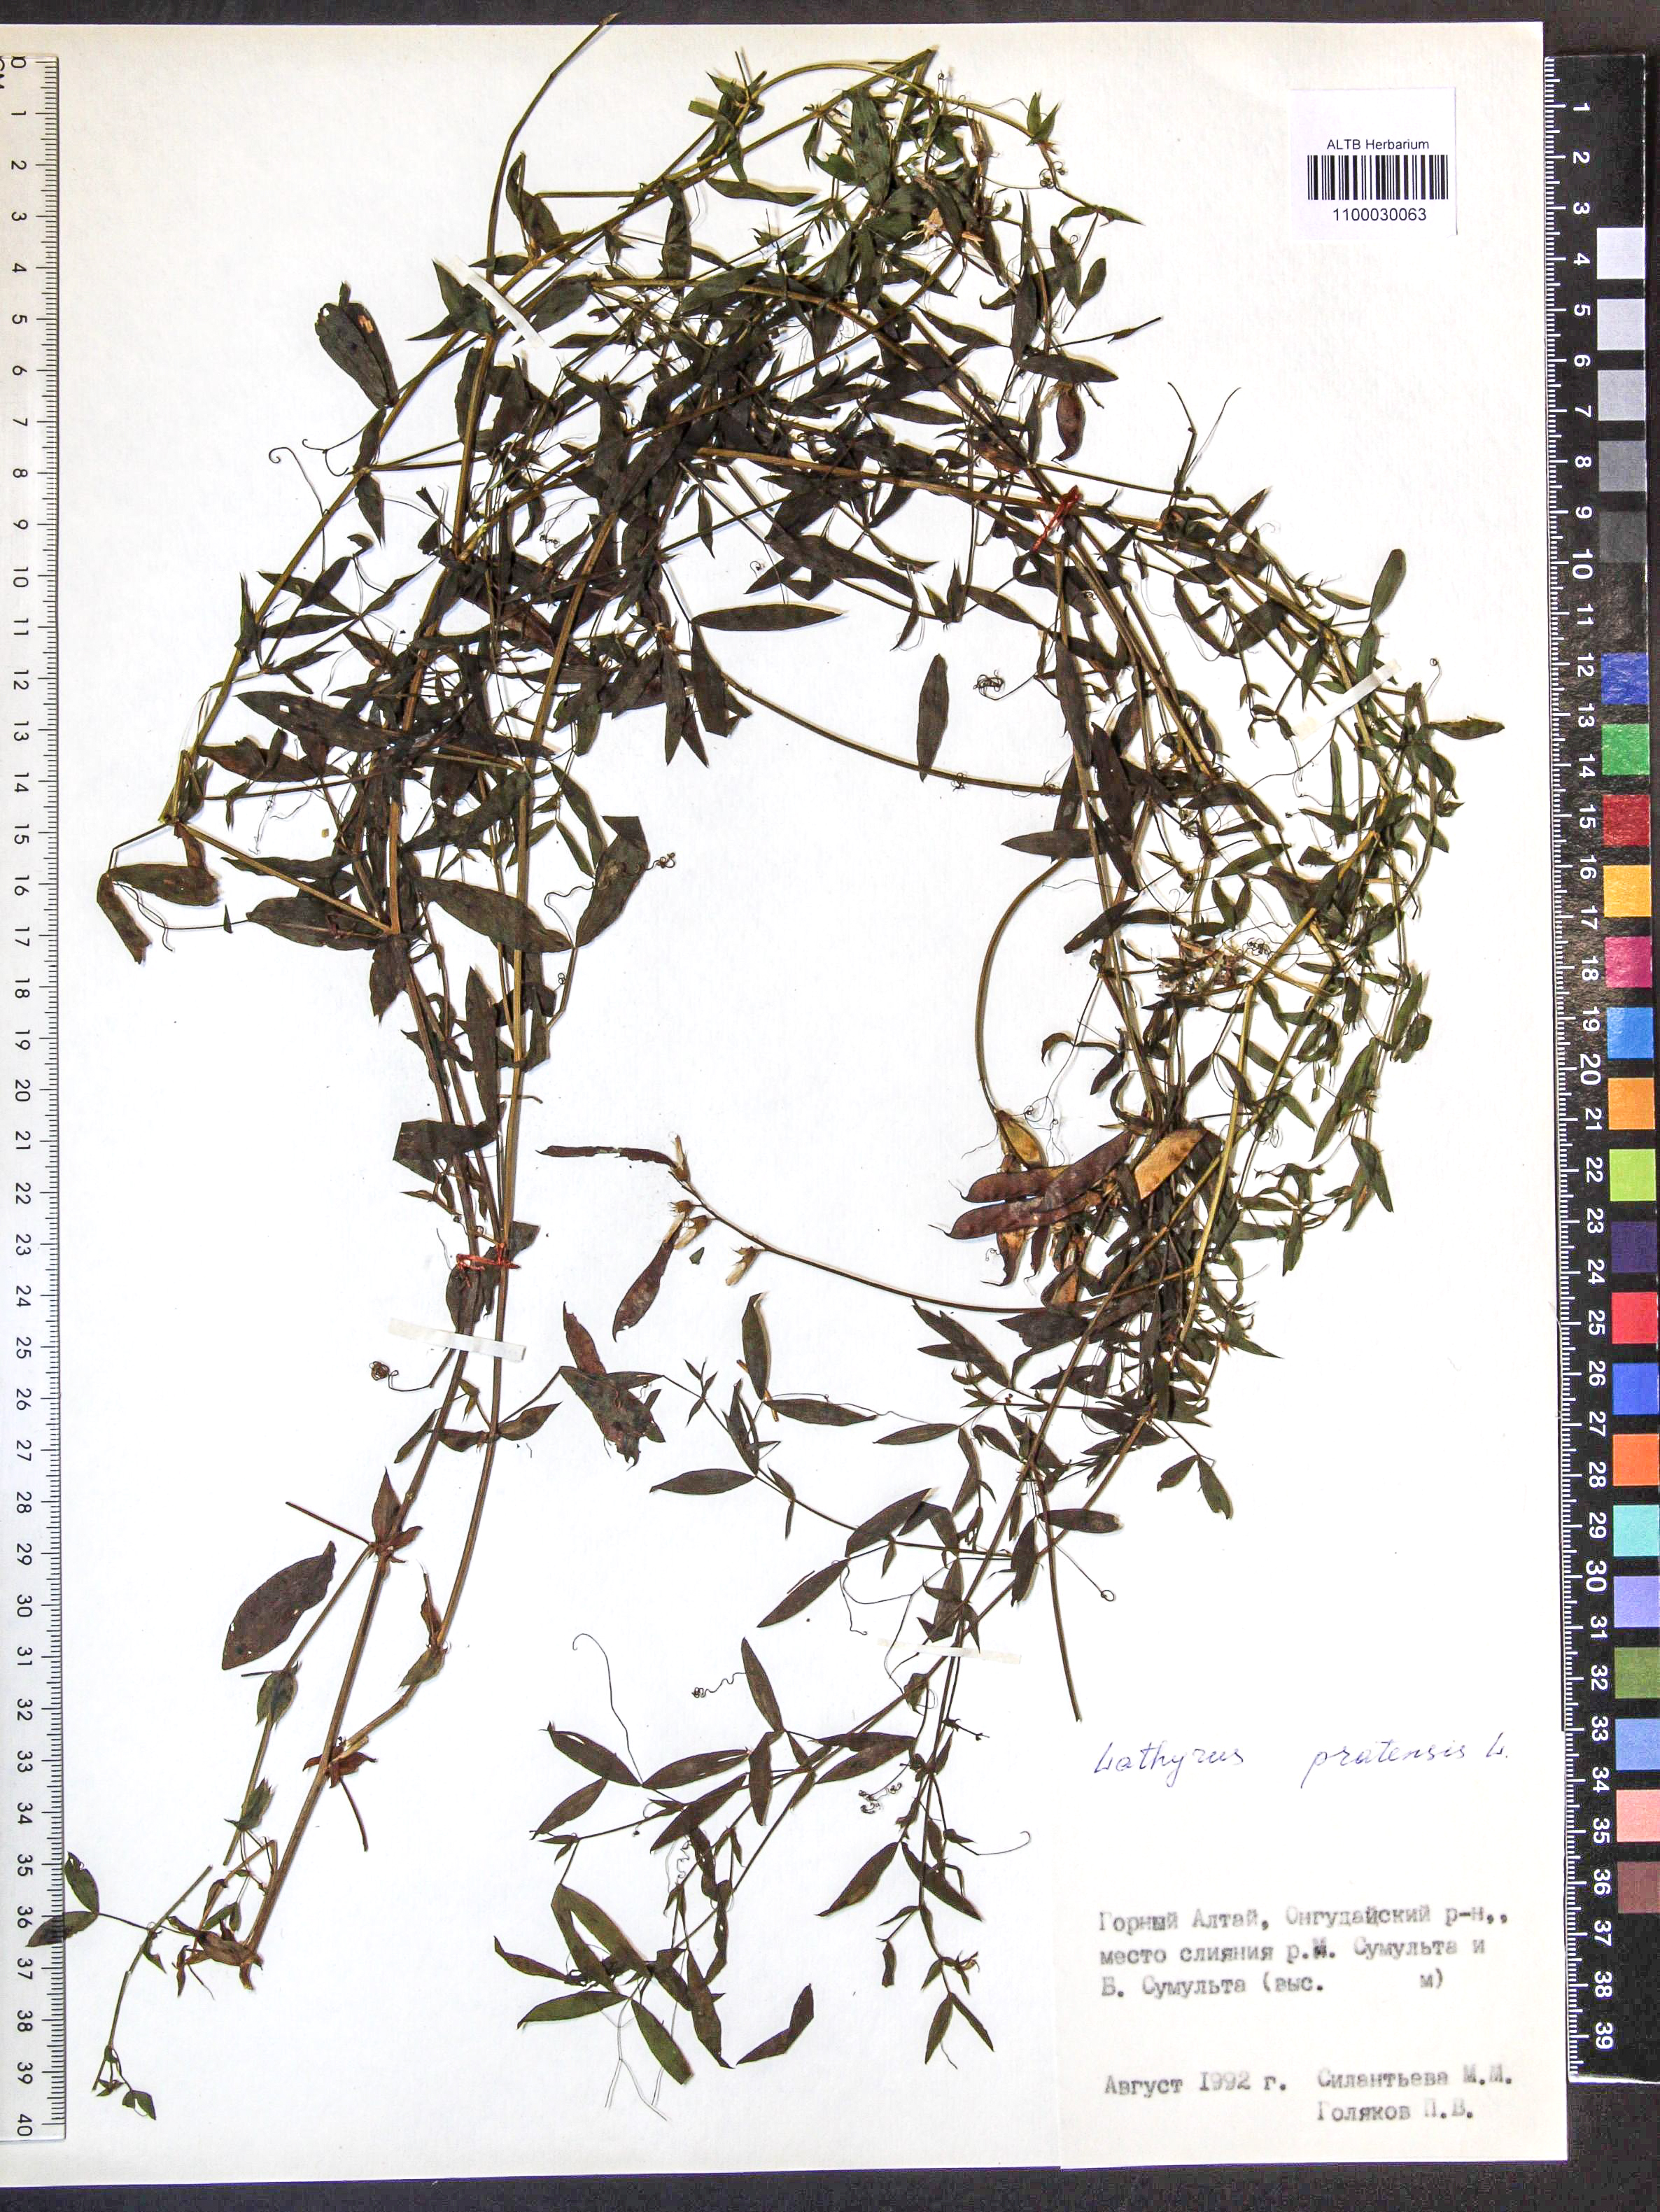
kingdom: Plantae
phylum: Tracheophyta
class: Magnoliopsida
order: Fabales
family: Fabaceae
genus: Lathyrus
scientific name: Lathyrus pratensis
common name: Meadow vetchling
